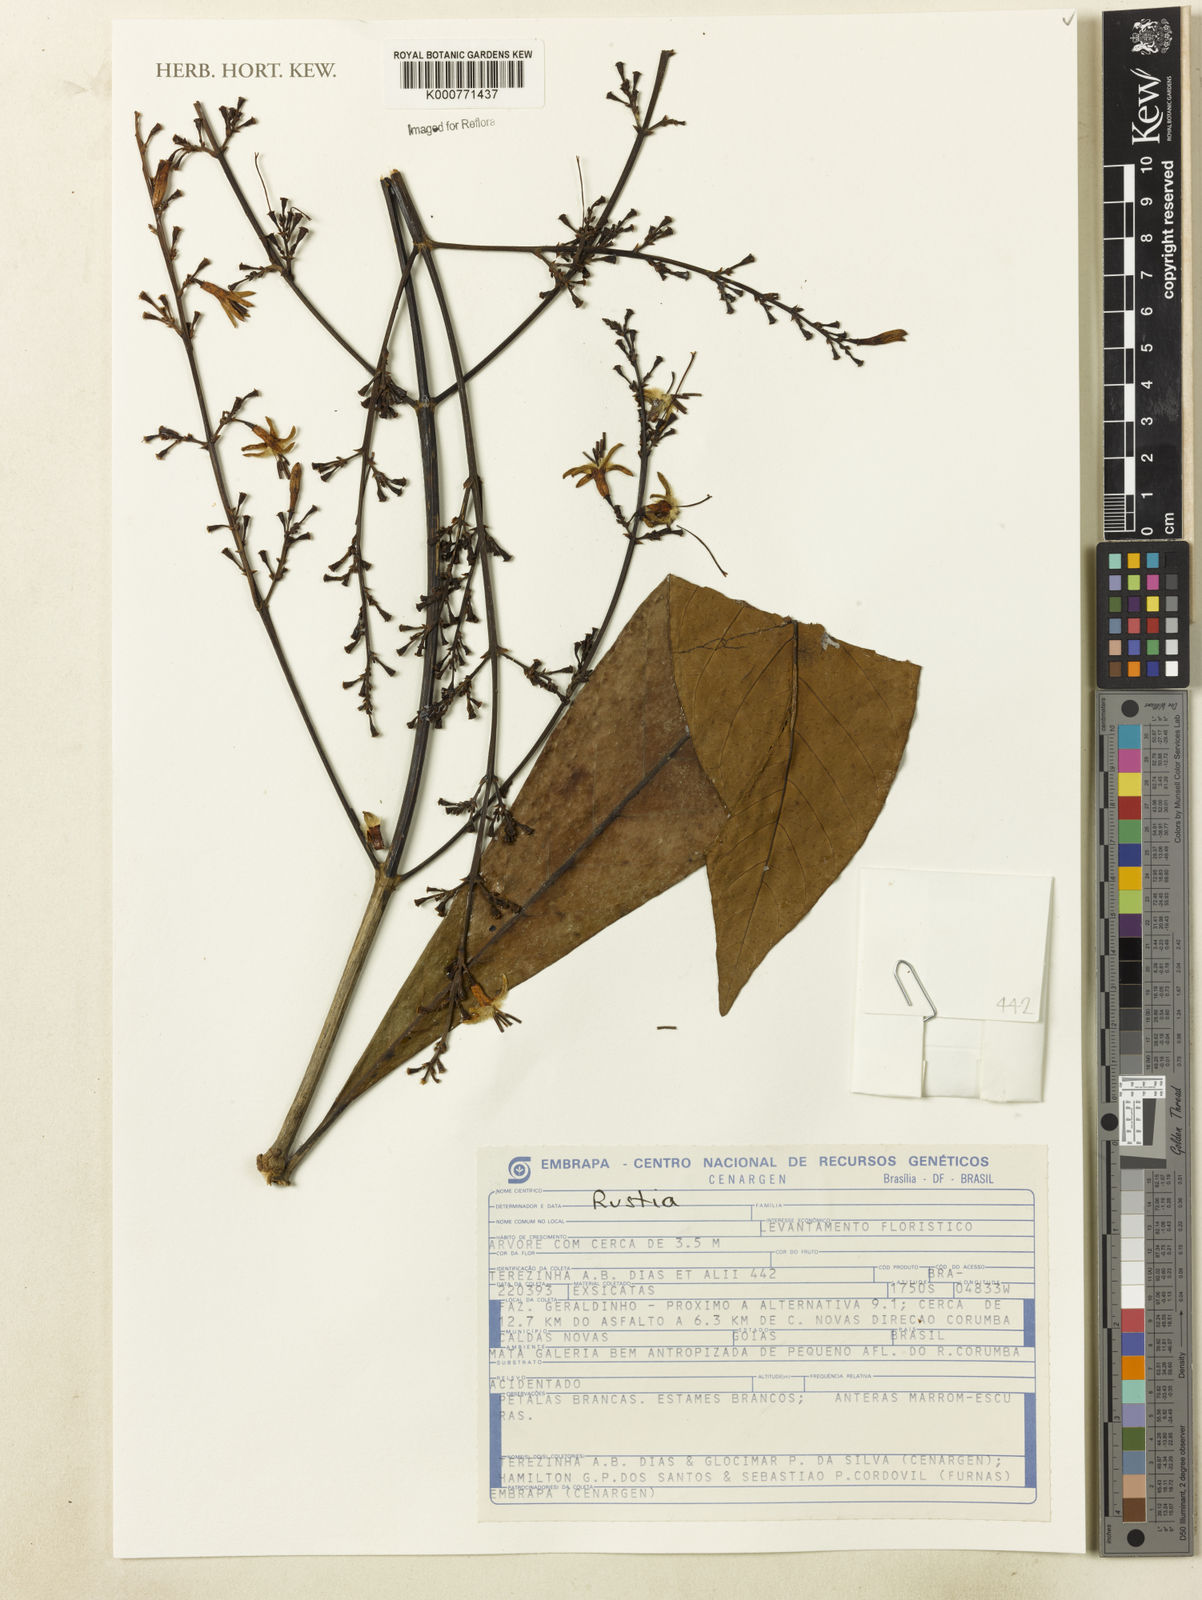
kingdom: Plantae
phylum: Tracheophyta
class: Magnoliopsida
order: Gentianales
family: Rubiaceae
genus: Rustia
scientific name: Rustia
